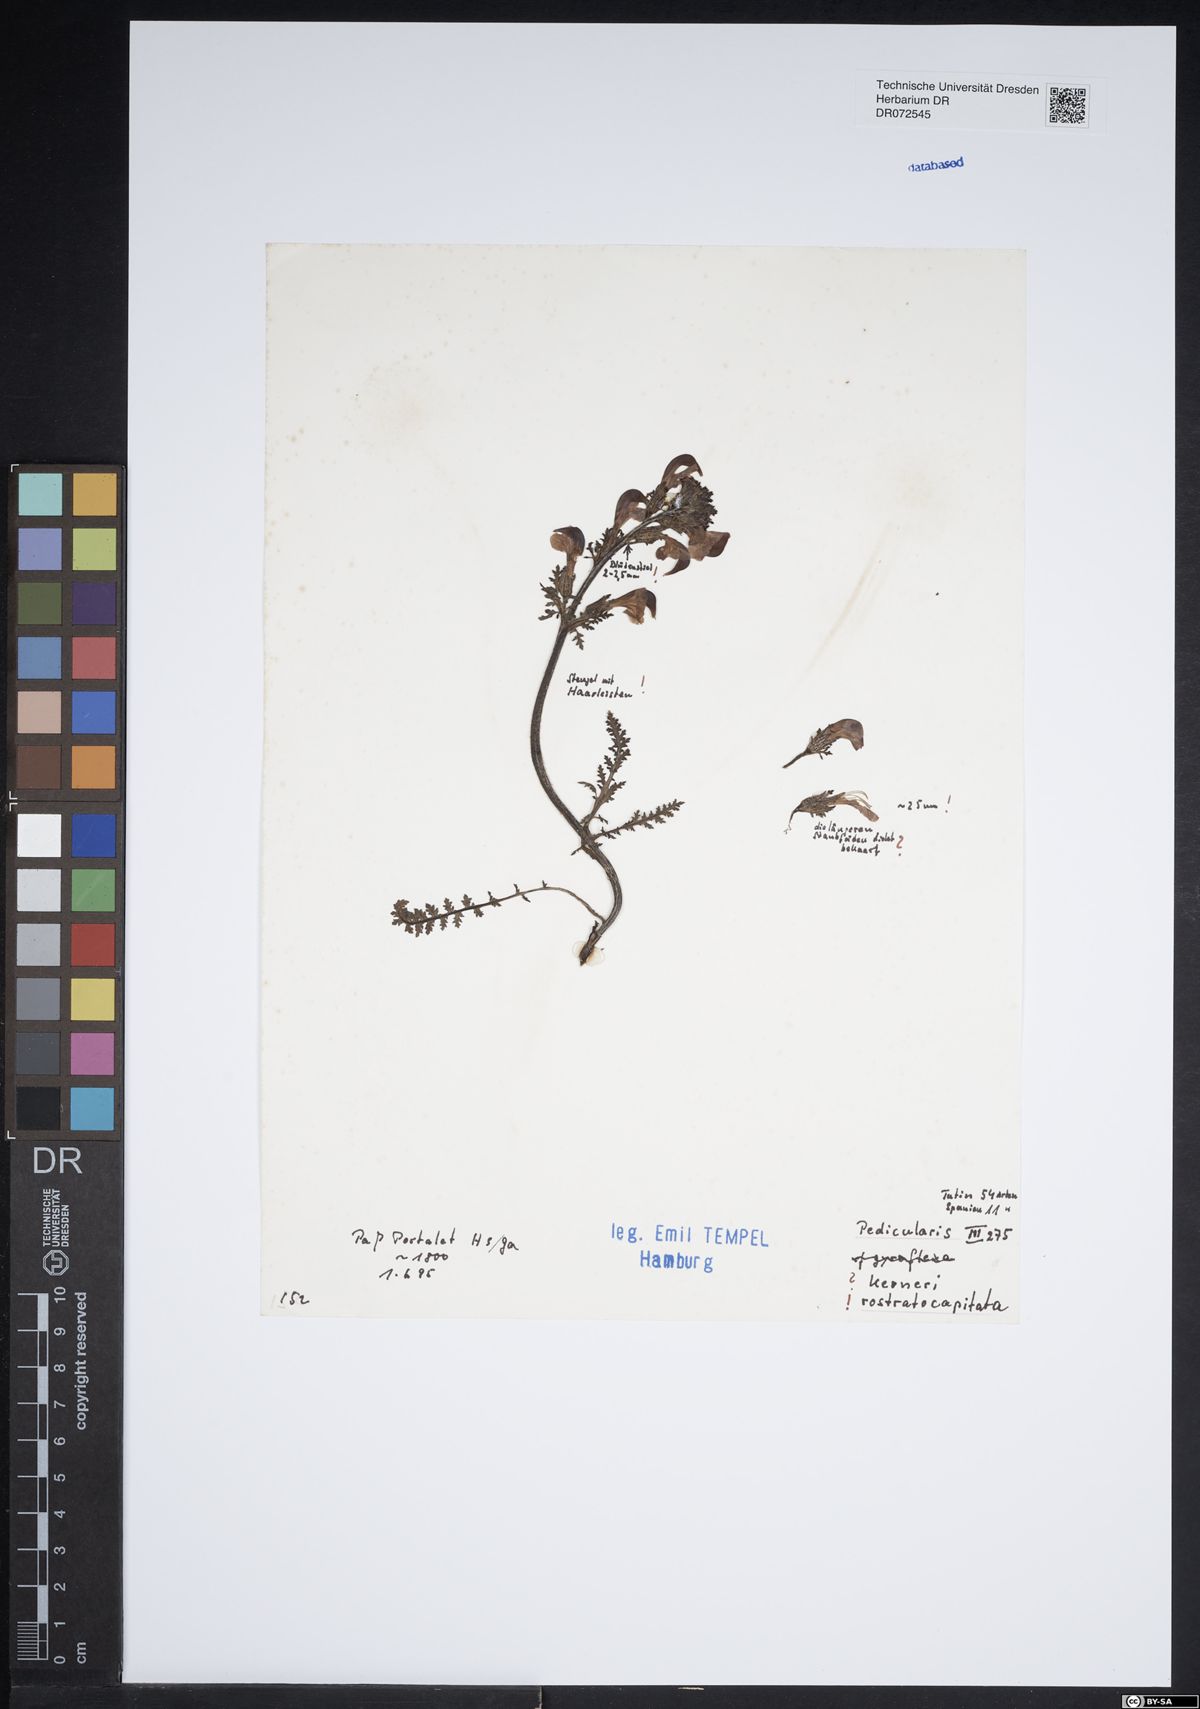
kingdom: Plantae
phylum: Tracheophyta
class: Magnoliopsida
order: Lamiales
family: Orobanchaceae
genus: Pedicularis
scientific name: Pedicularis rostratocapitata
